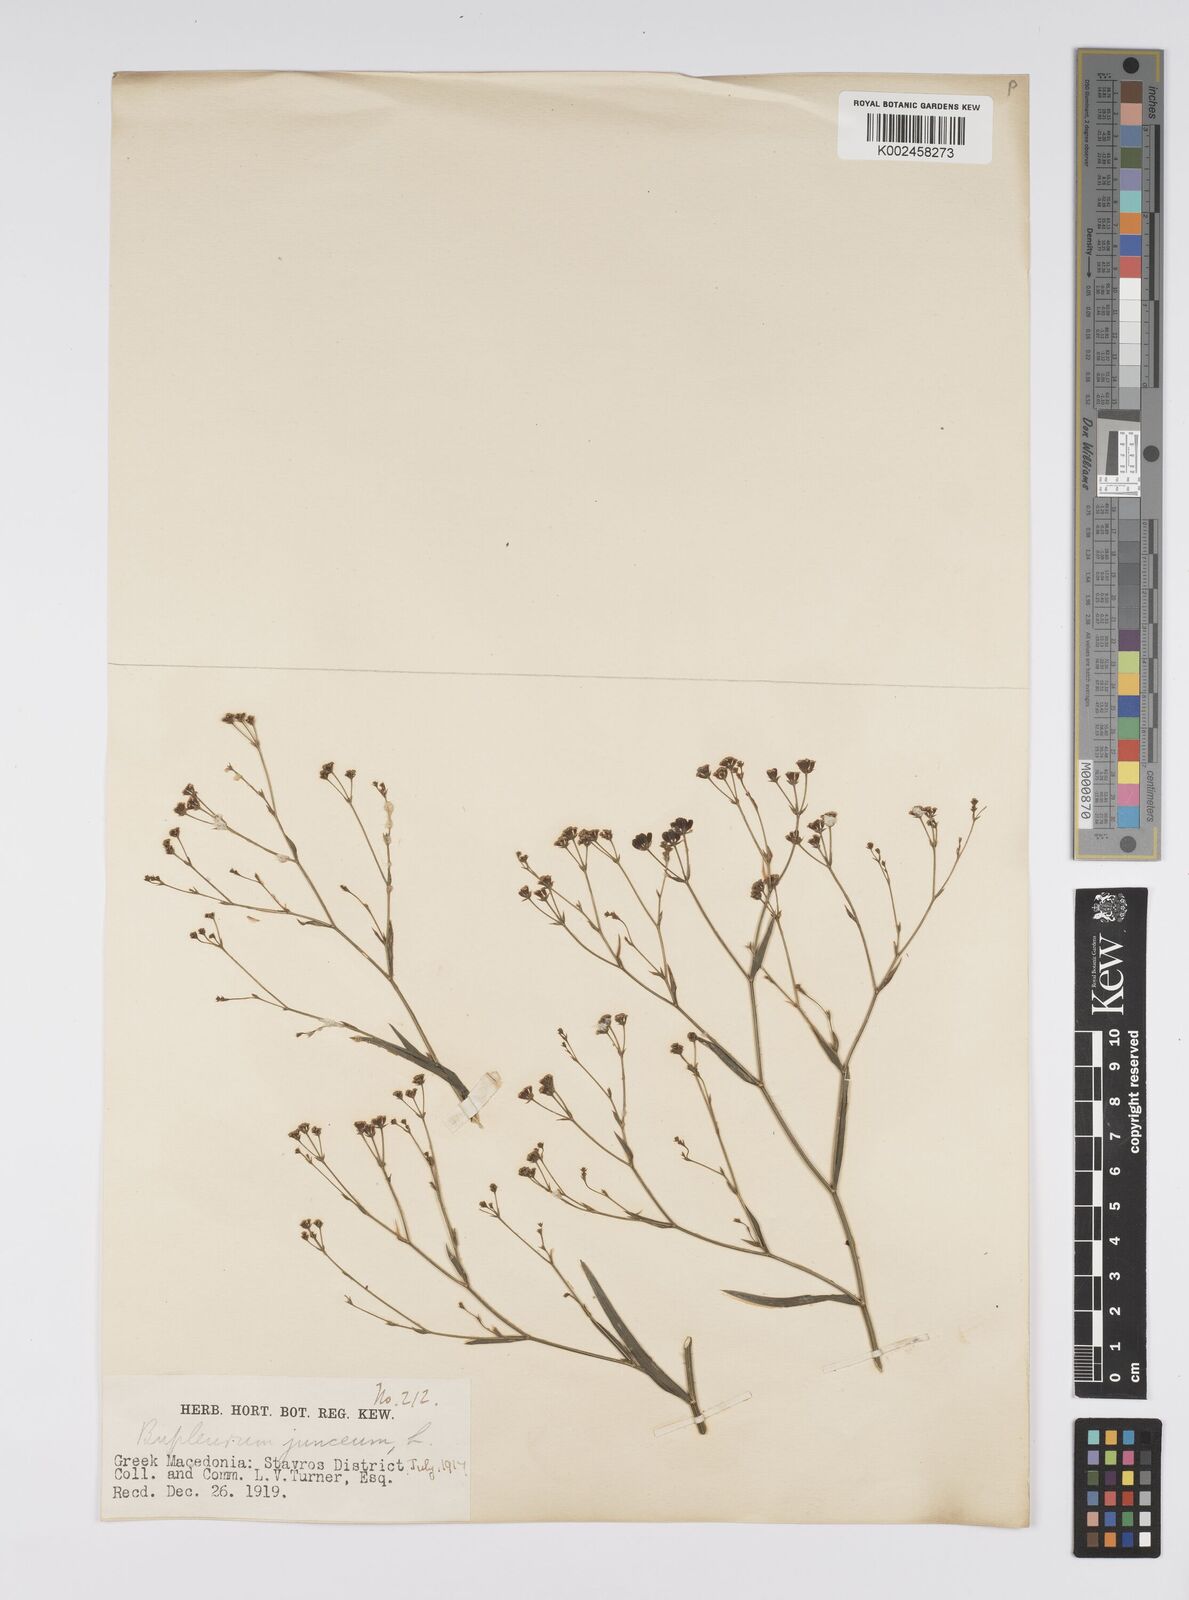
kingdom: Plantae
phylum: Tracheophyta
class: Magnoliopsida
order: Apiales
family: Apiaceae
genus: Bupleurum
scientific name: Bupleurum praealtum
